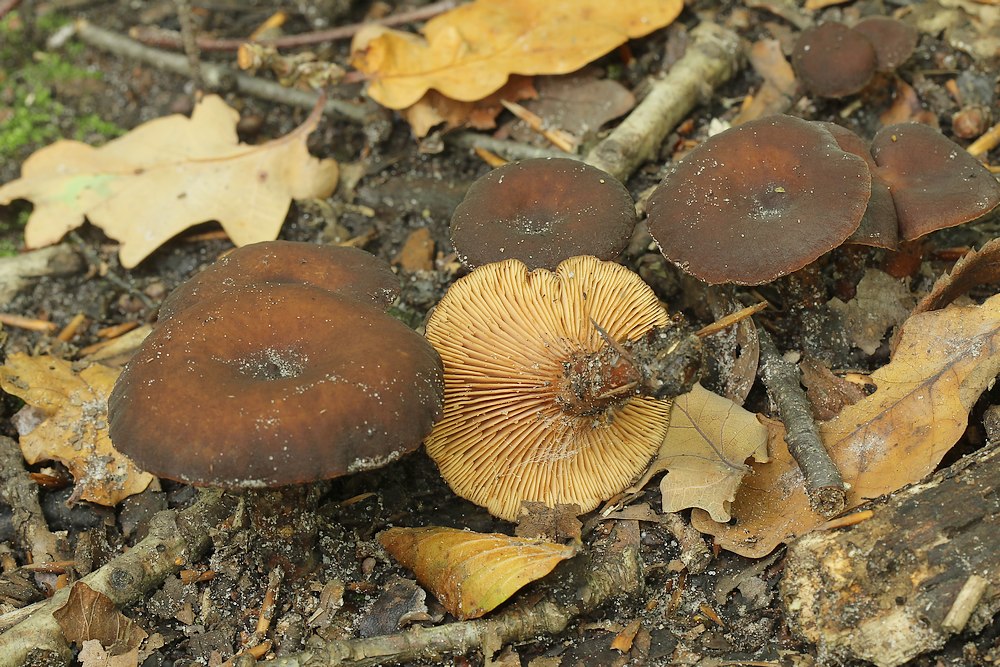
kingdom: Fungi
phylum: Basidiomycota
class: Agaricomycetes
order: Russulales
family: Russulaceae
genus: Lactarius
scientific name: Lactarius serifluus
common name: tæge-mælkehat
